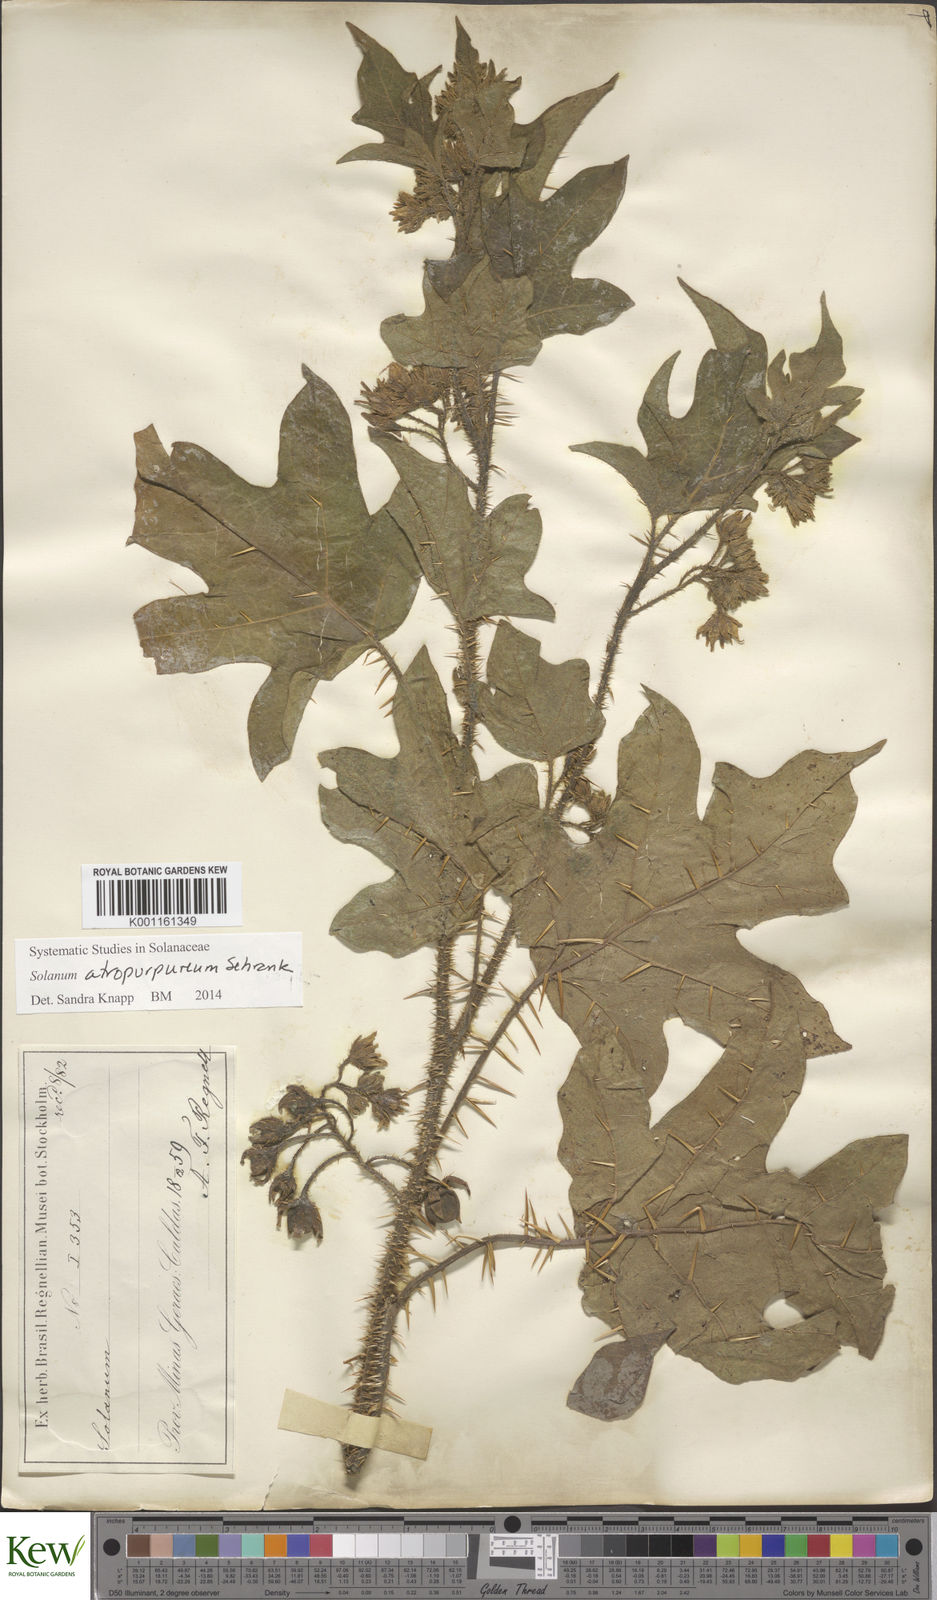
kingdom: Plantae
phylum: Tracheophyta
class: Magnoliopsida
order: Solanales
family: Solanaceae
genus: Solanum
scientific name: Solanum atropurpureum
